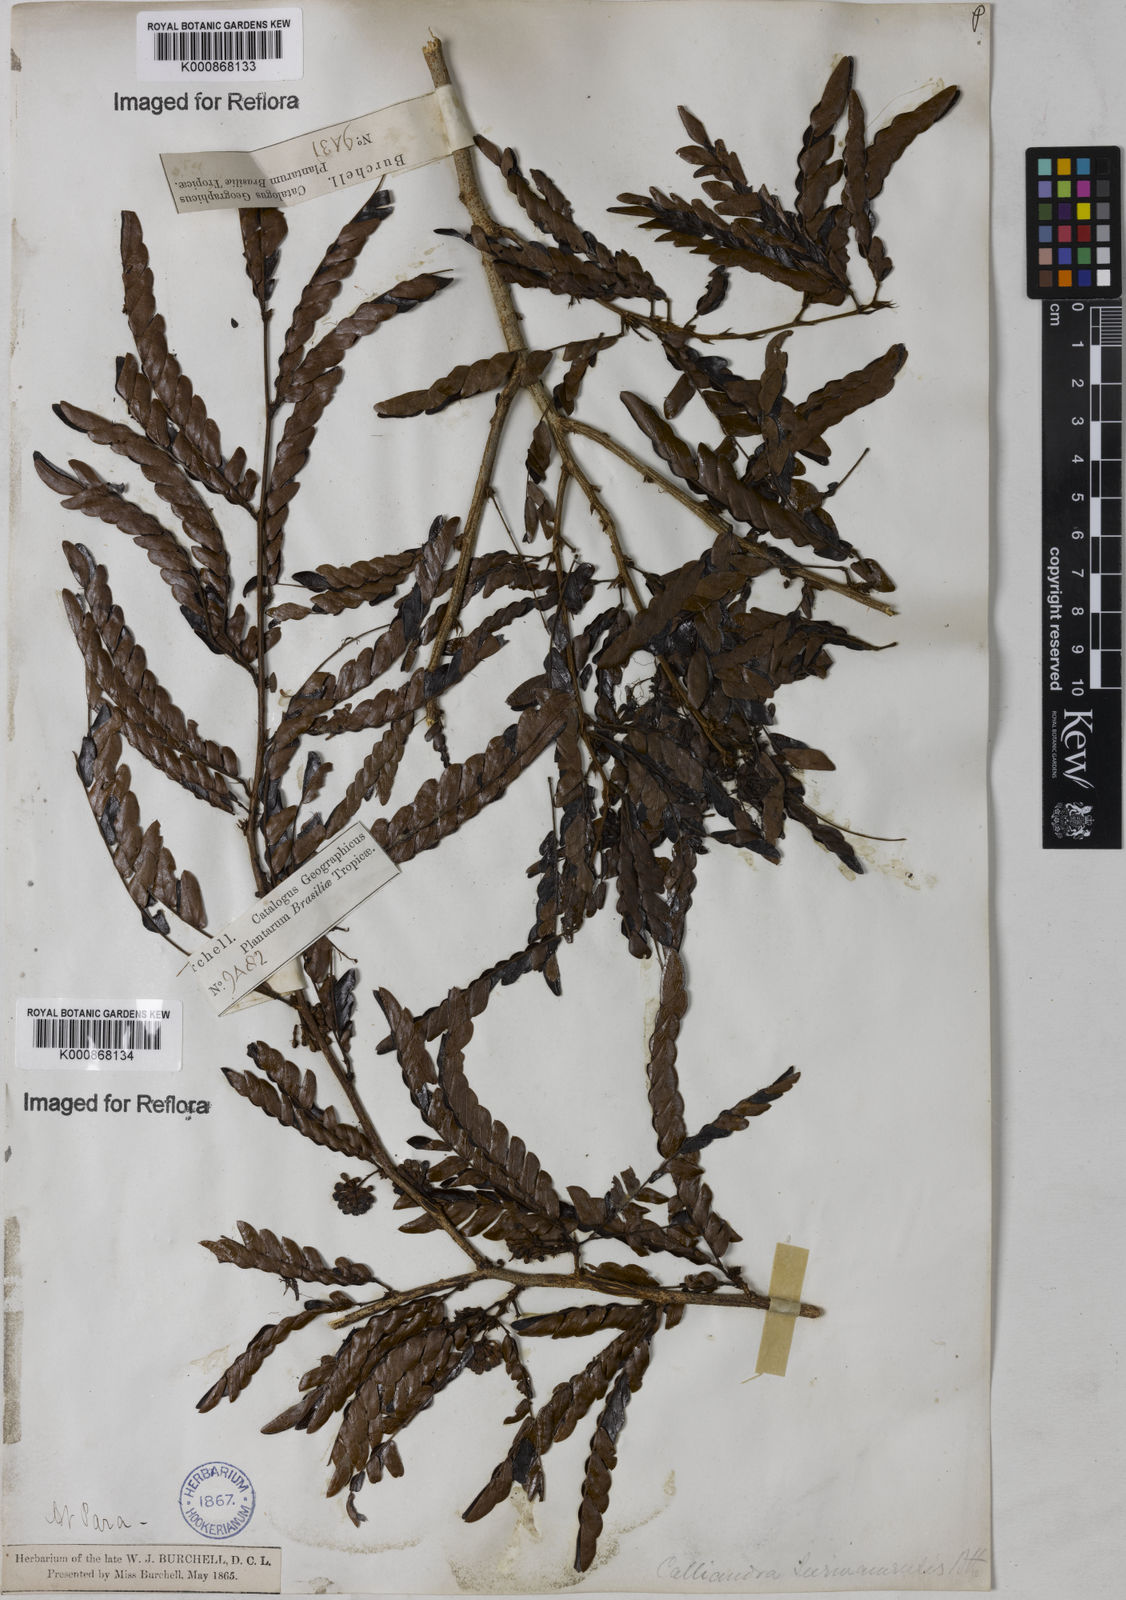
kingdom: Plantae
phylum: Tracheophyta
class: Magnoliopsida
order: Fabales
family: Fabaceae
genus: Calliandra
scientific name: Calliandra surinamensis
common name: Pink powder puff
